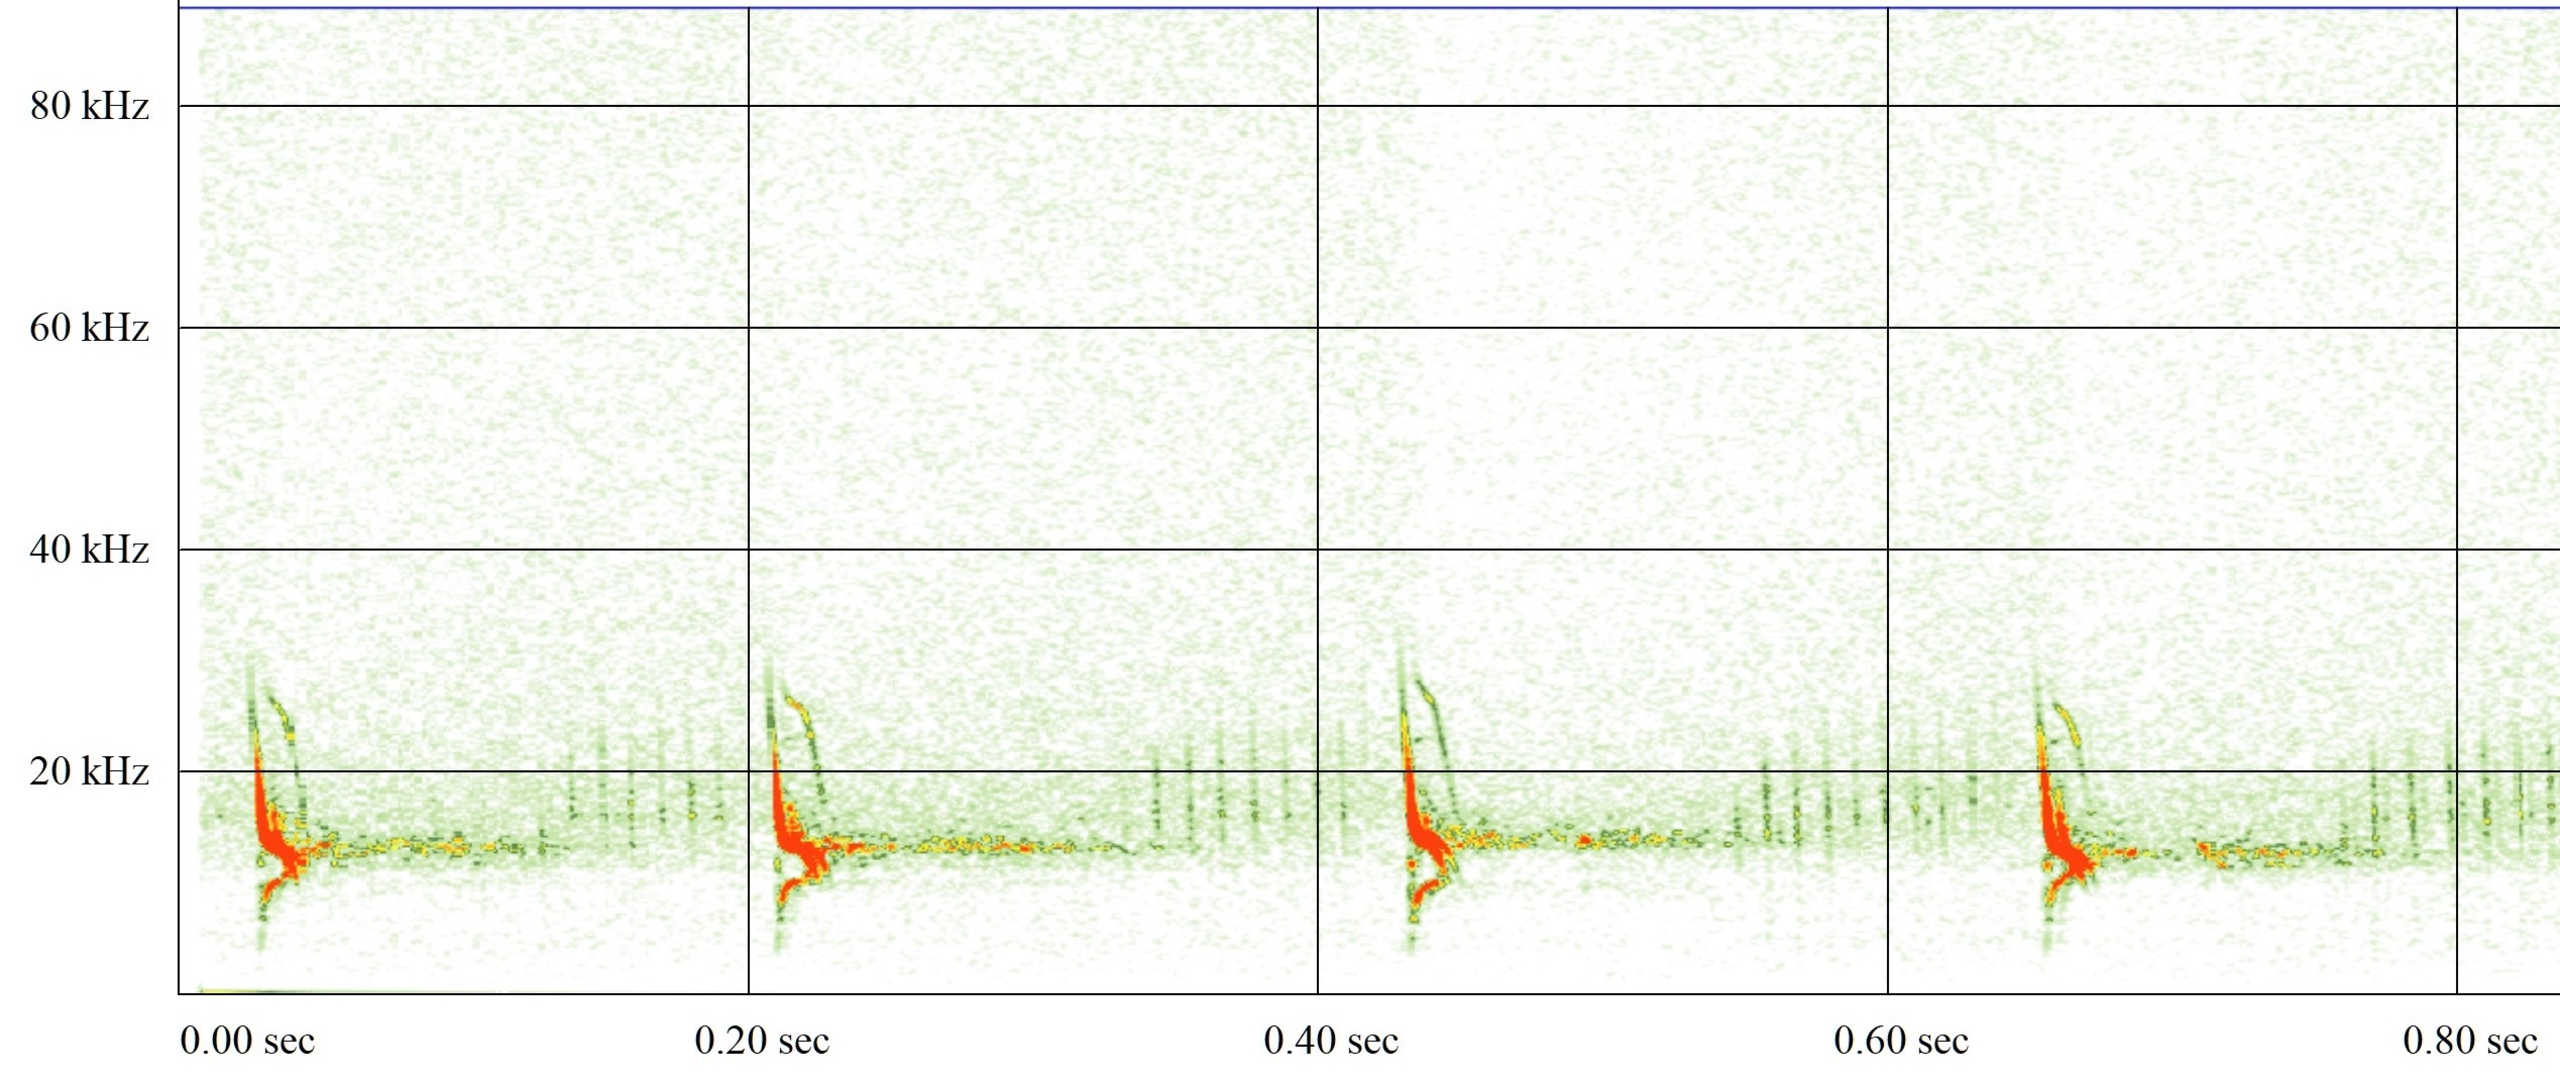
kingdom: Animalia
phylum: Chordata
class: Mammalia
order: Chiroptera
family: Vespertilionidae
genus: Vespertilio
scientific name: Vespertilio murinus
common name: Skimmelflagermus
